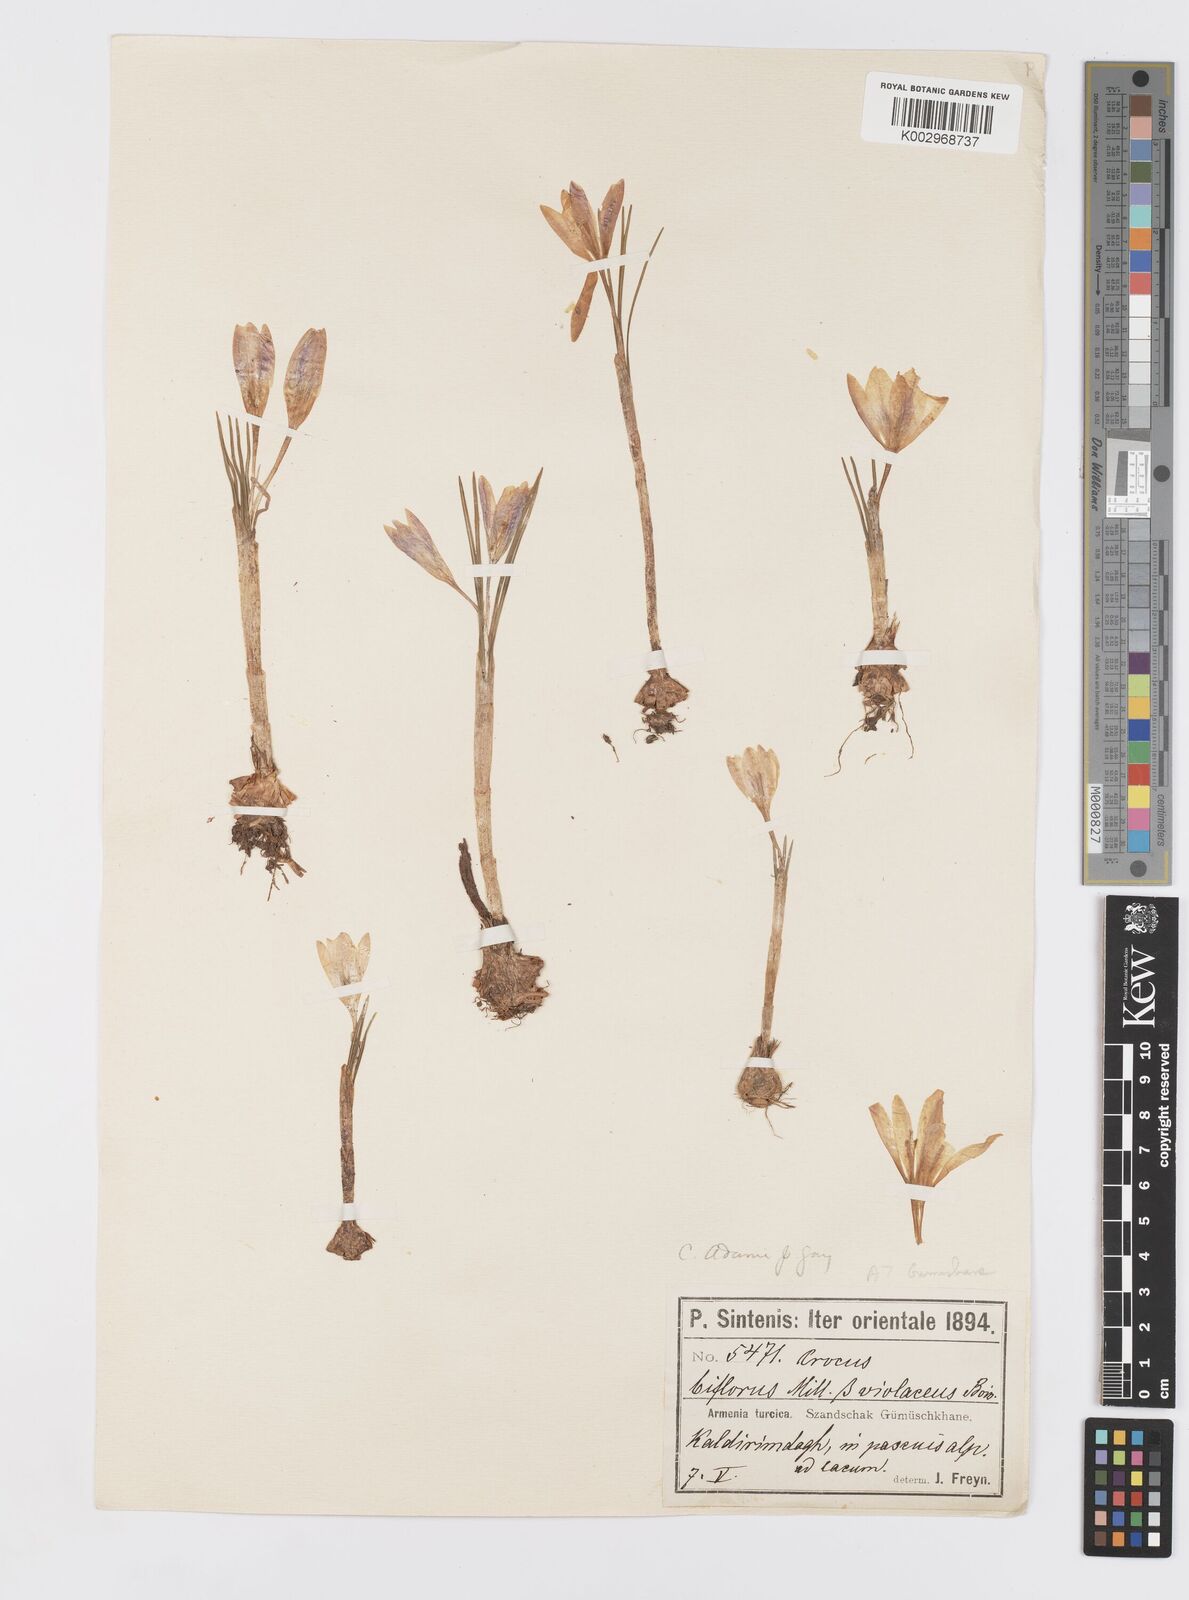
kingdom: Plantae
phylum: Tracheophyta
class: Liliopsida
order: Asparagales
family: Iridaceae
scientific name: Iridaceae
